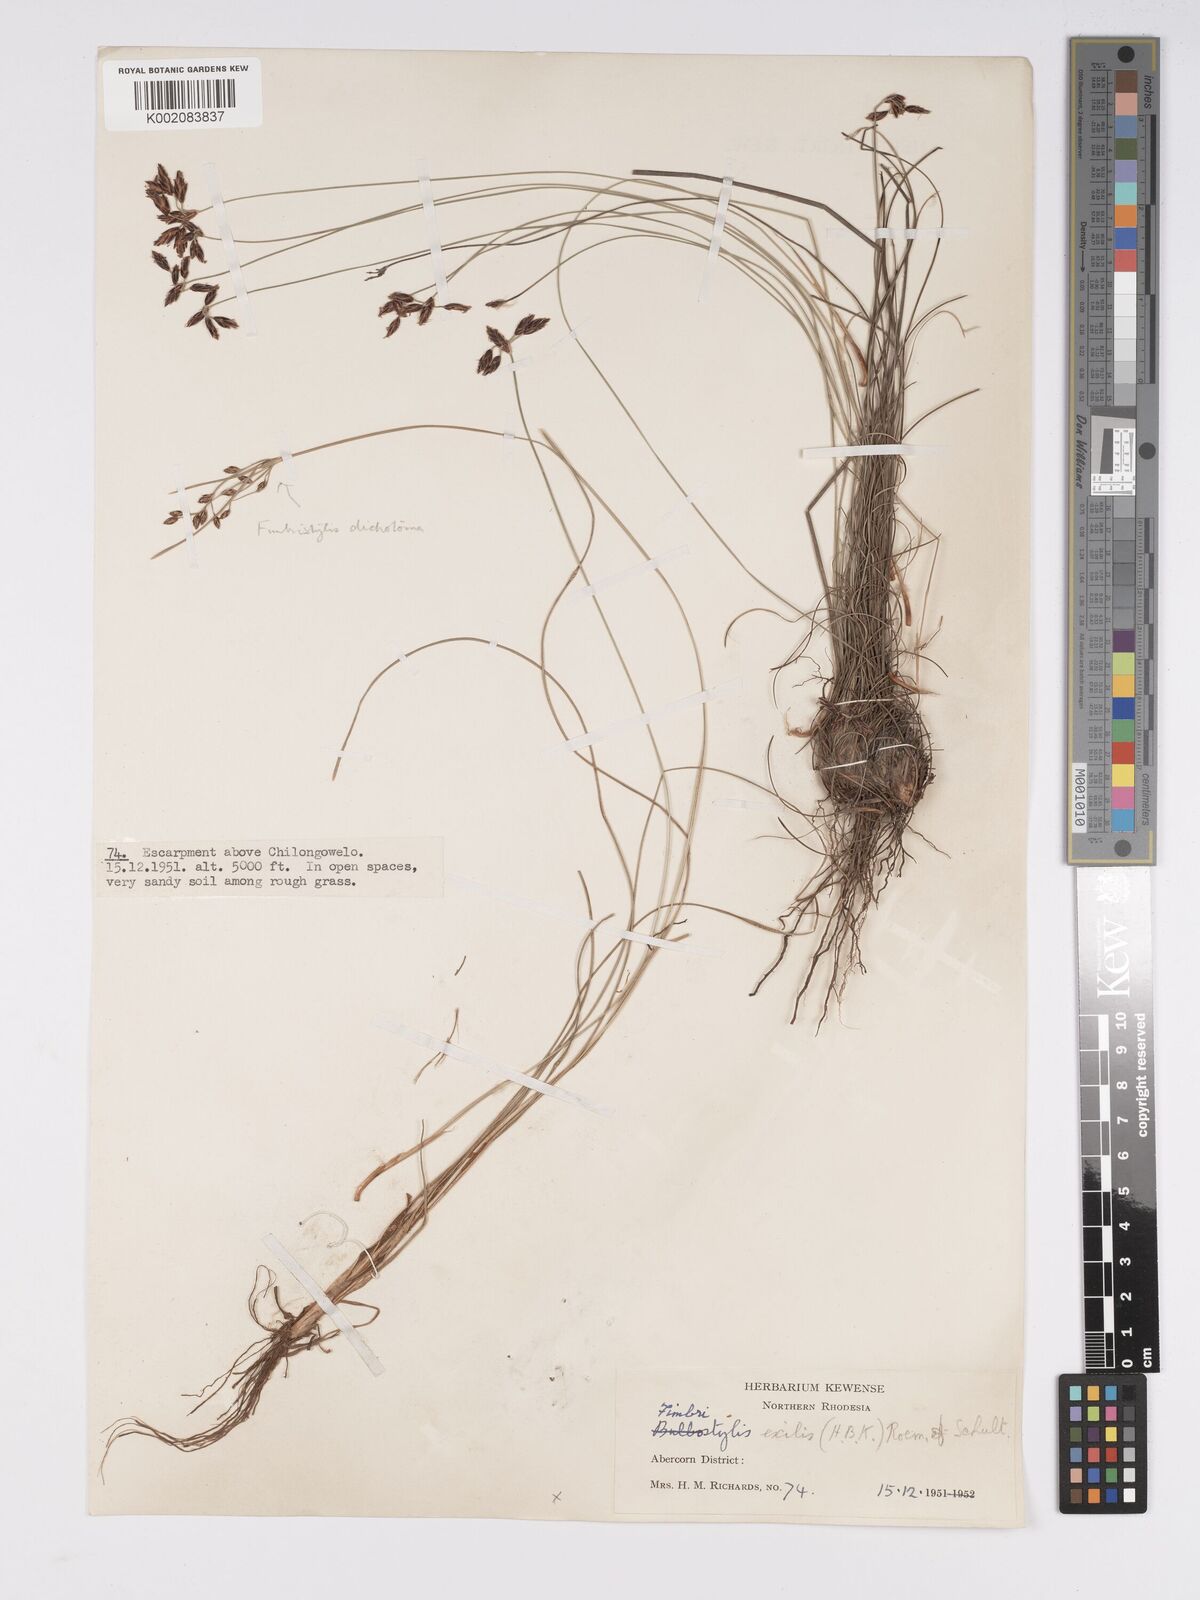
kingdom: Plantae
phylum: Tracheophyta
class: Liliopsida
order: Poales
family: Cyperaceae
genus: Bulbostylis
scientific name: Bulbostylis hispidula
